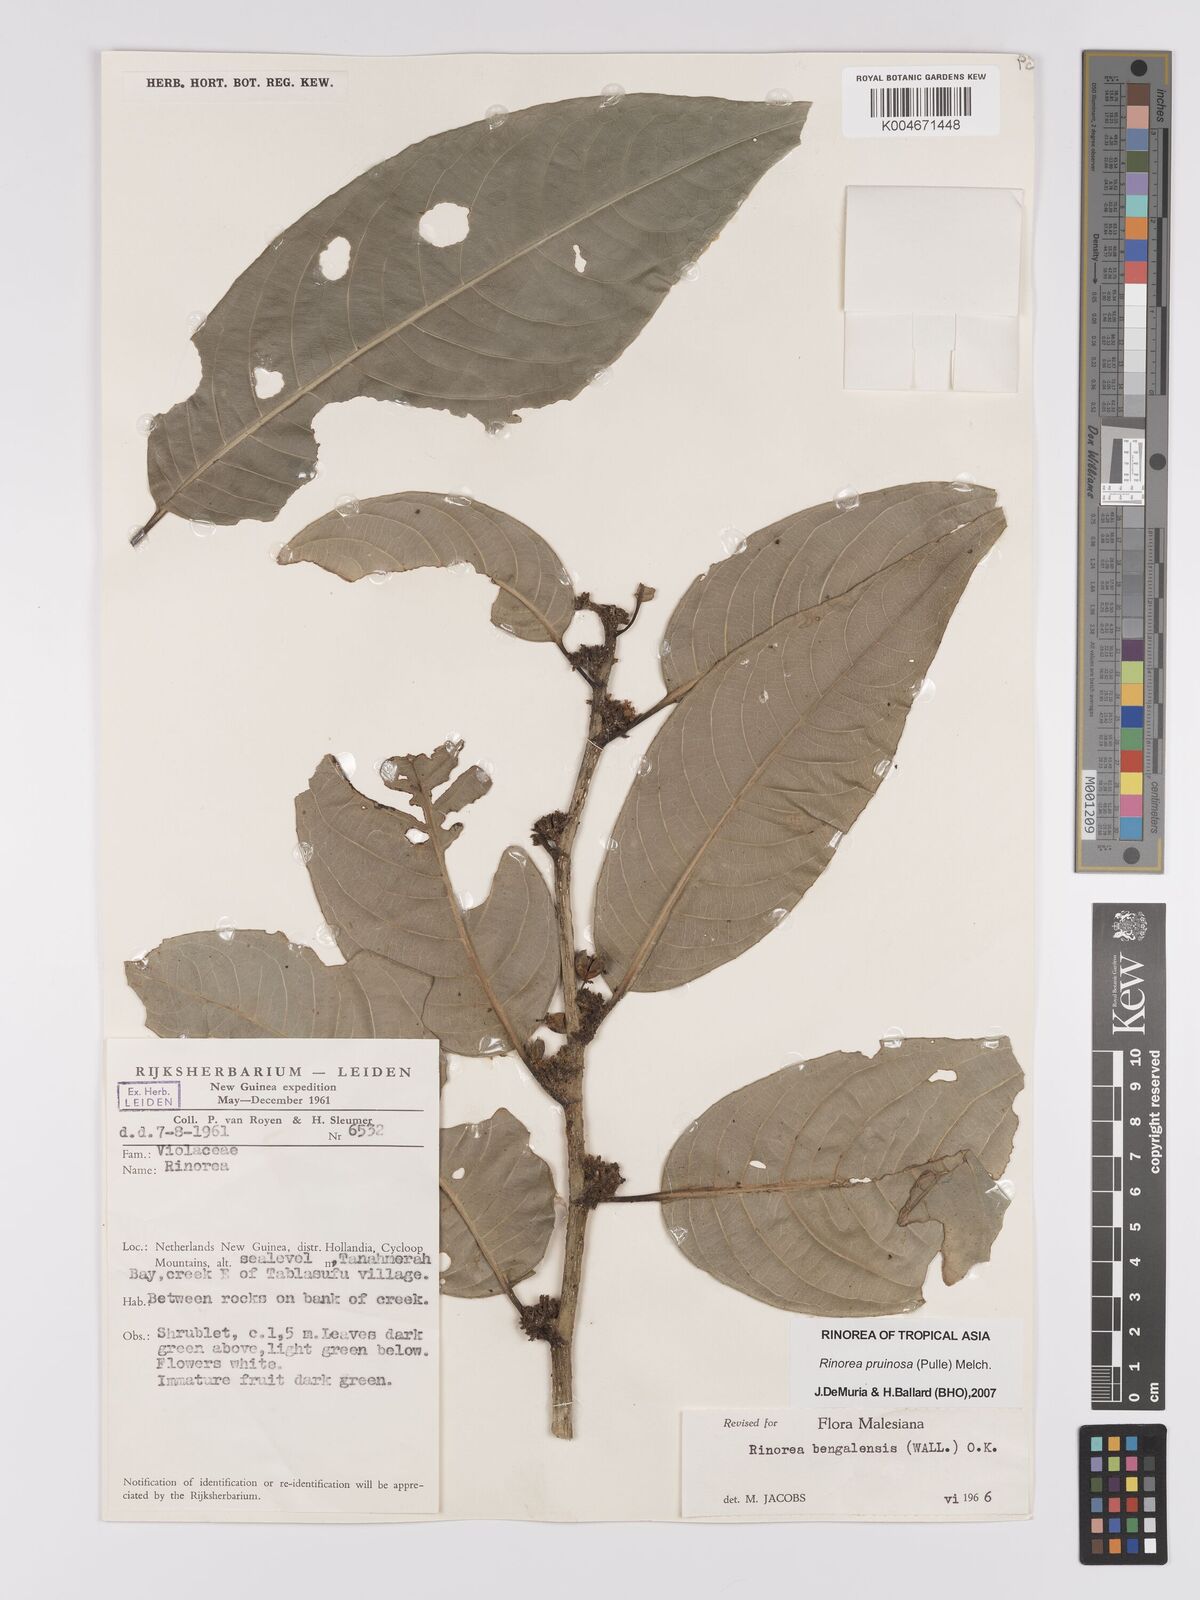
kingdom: Plantae
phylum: Tracheophyta
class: Magnoliopsida
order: Malpighiales
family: Violaceae
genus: Rinorea
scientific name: Rinorea pruinosa
